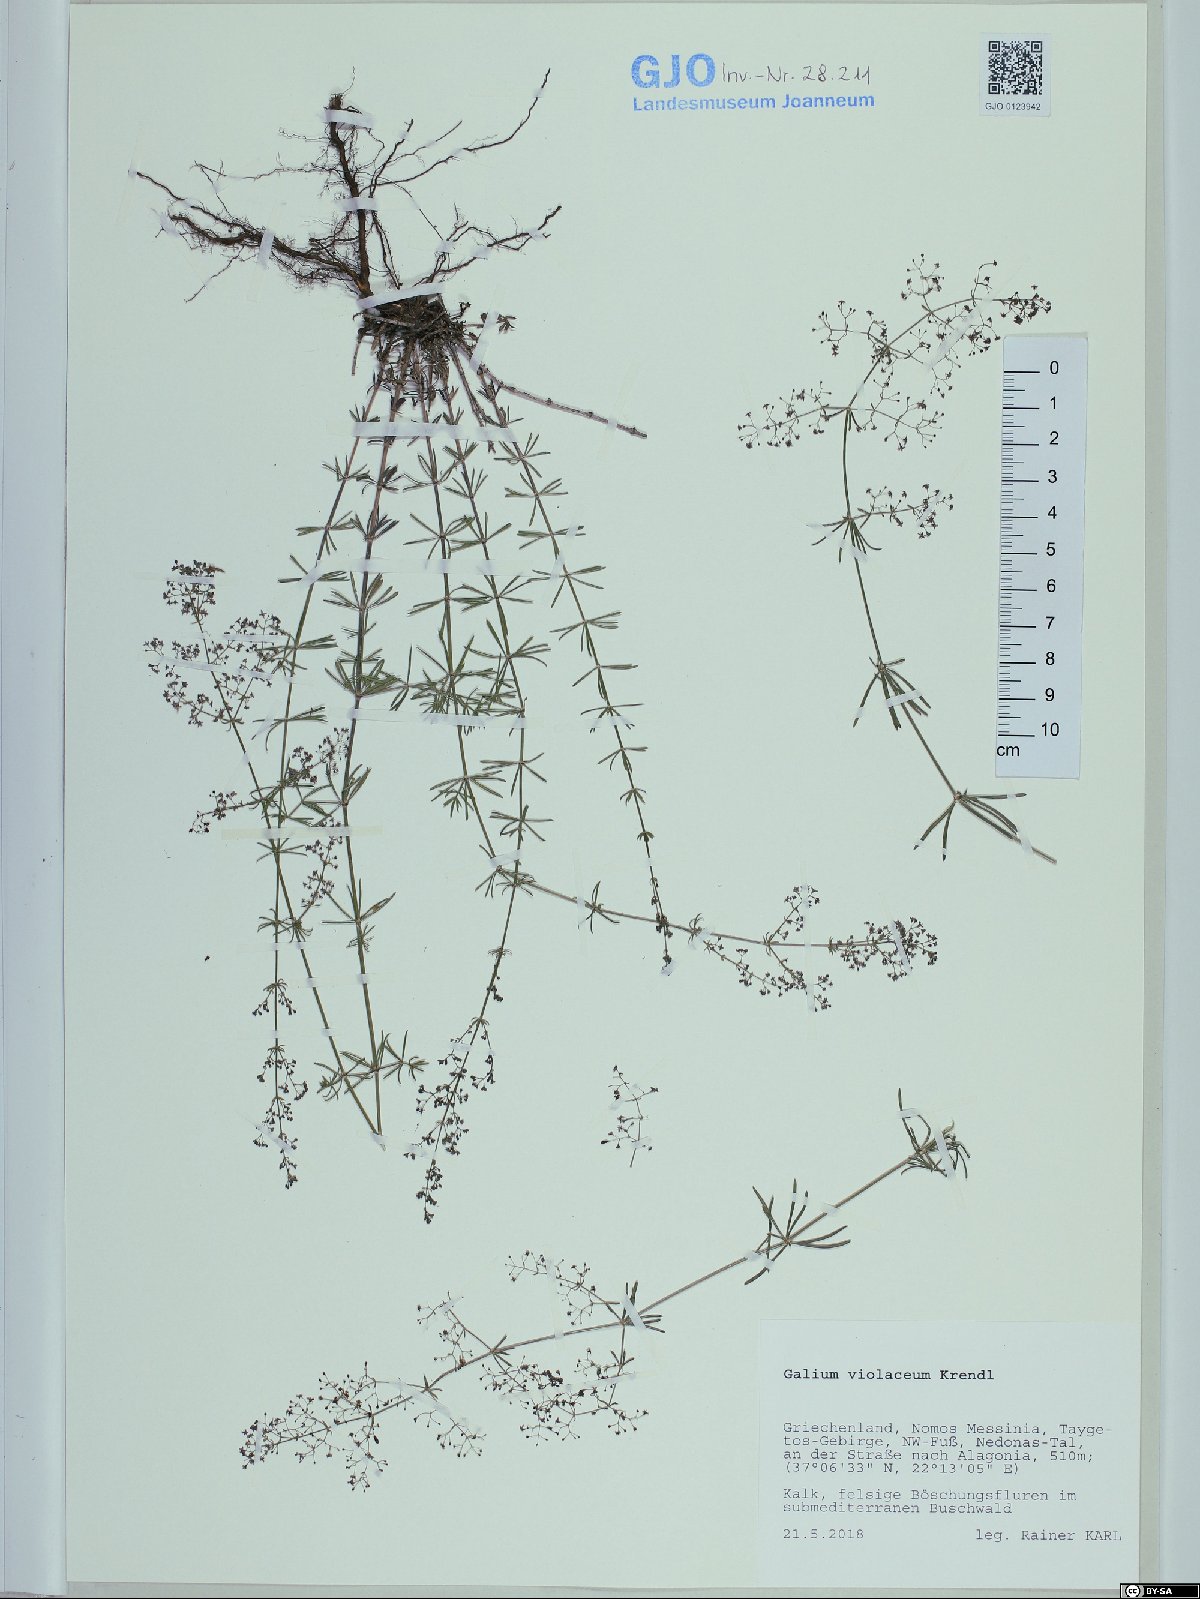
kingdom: Plantae
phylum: Tracheophyta
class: Magnoliopsida
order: Gentianales
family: Rubiaceae
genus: Galium
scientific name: Galium taygeteum
